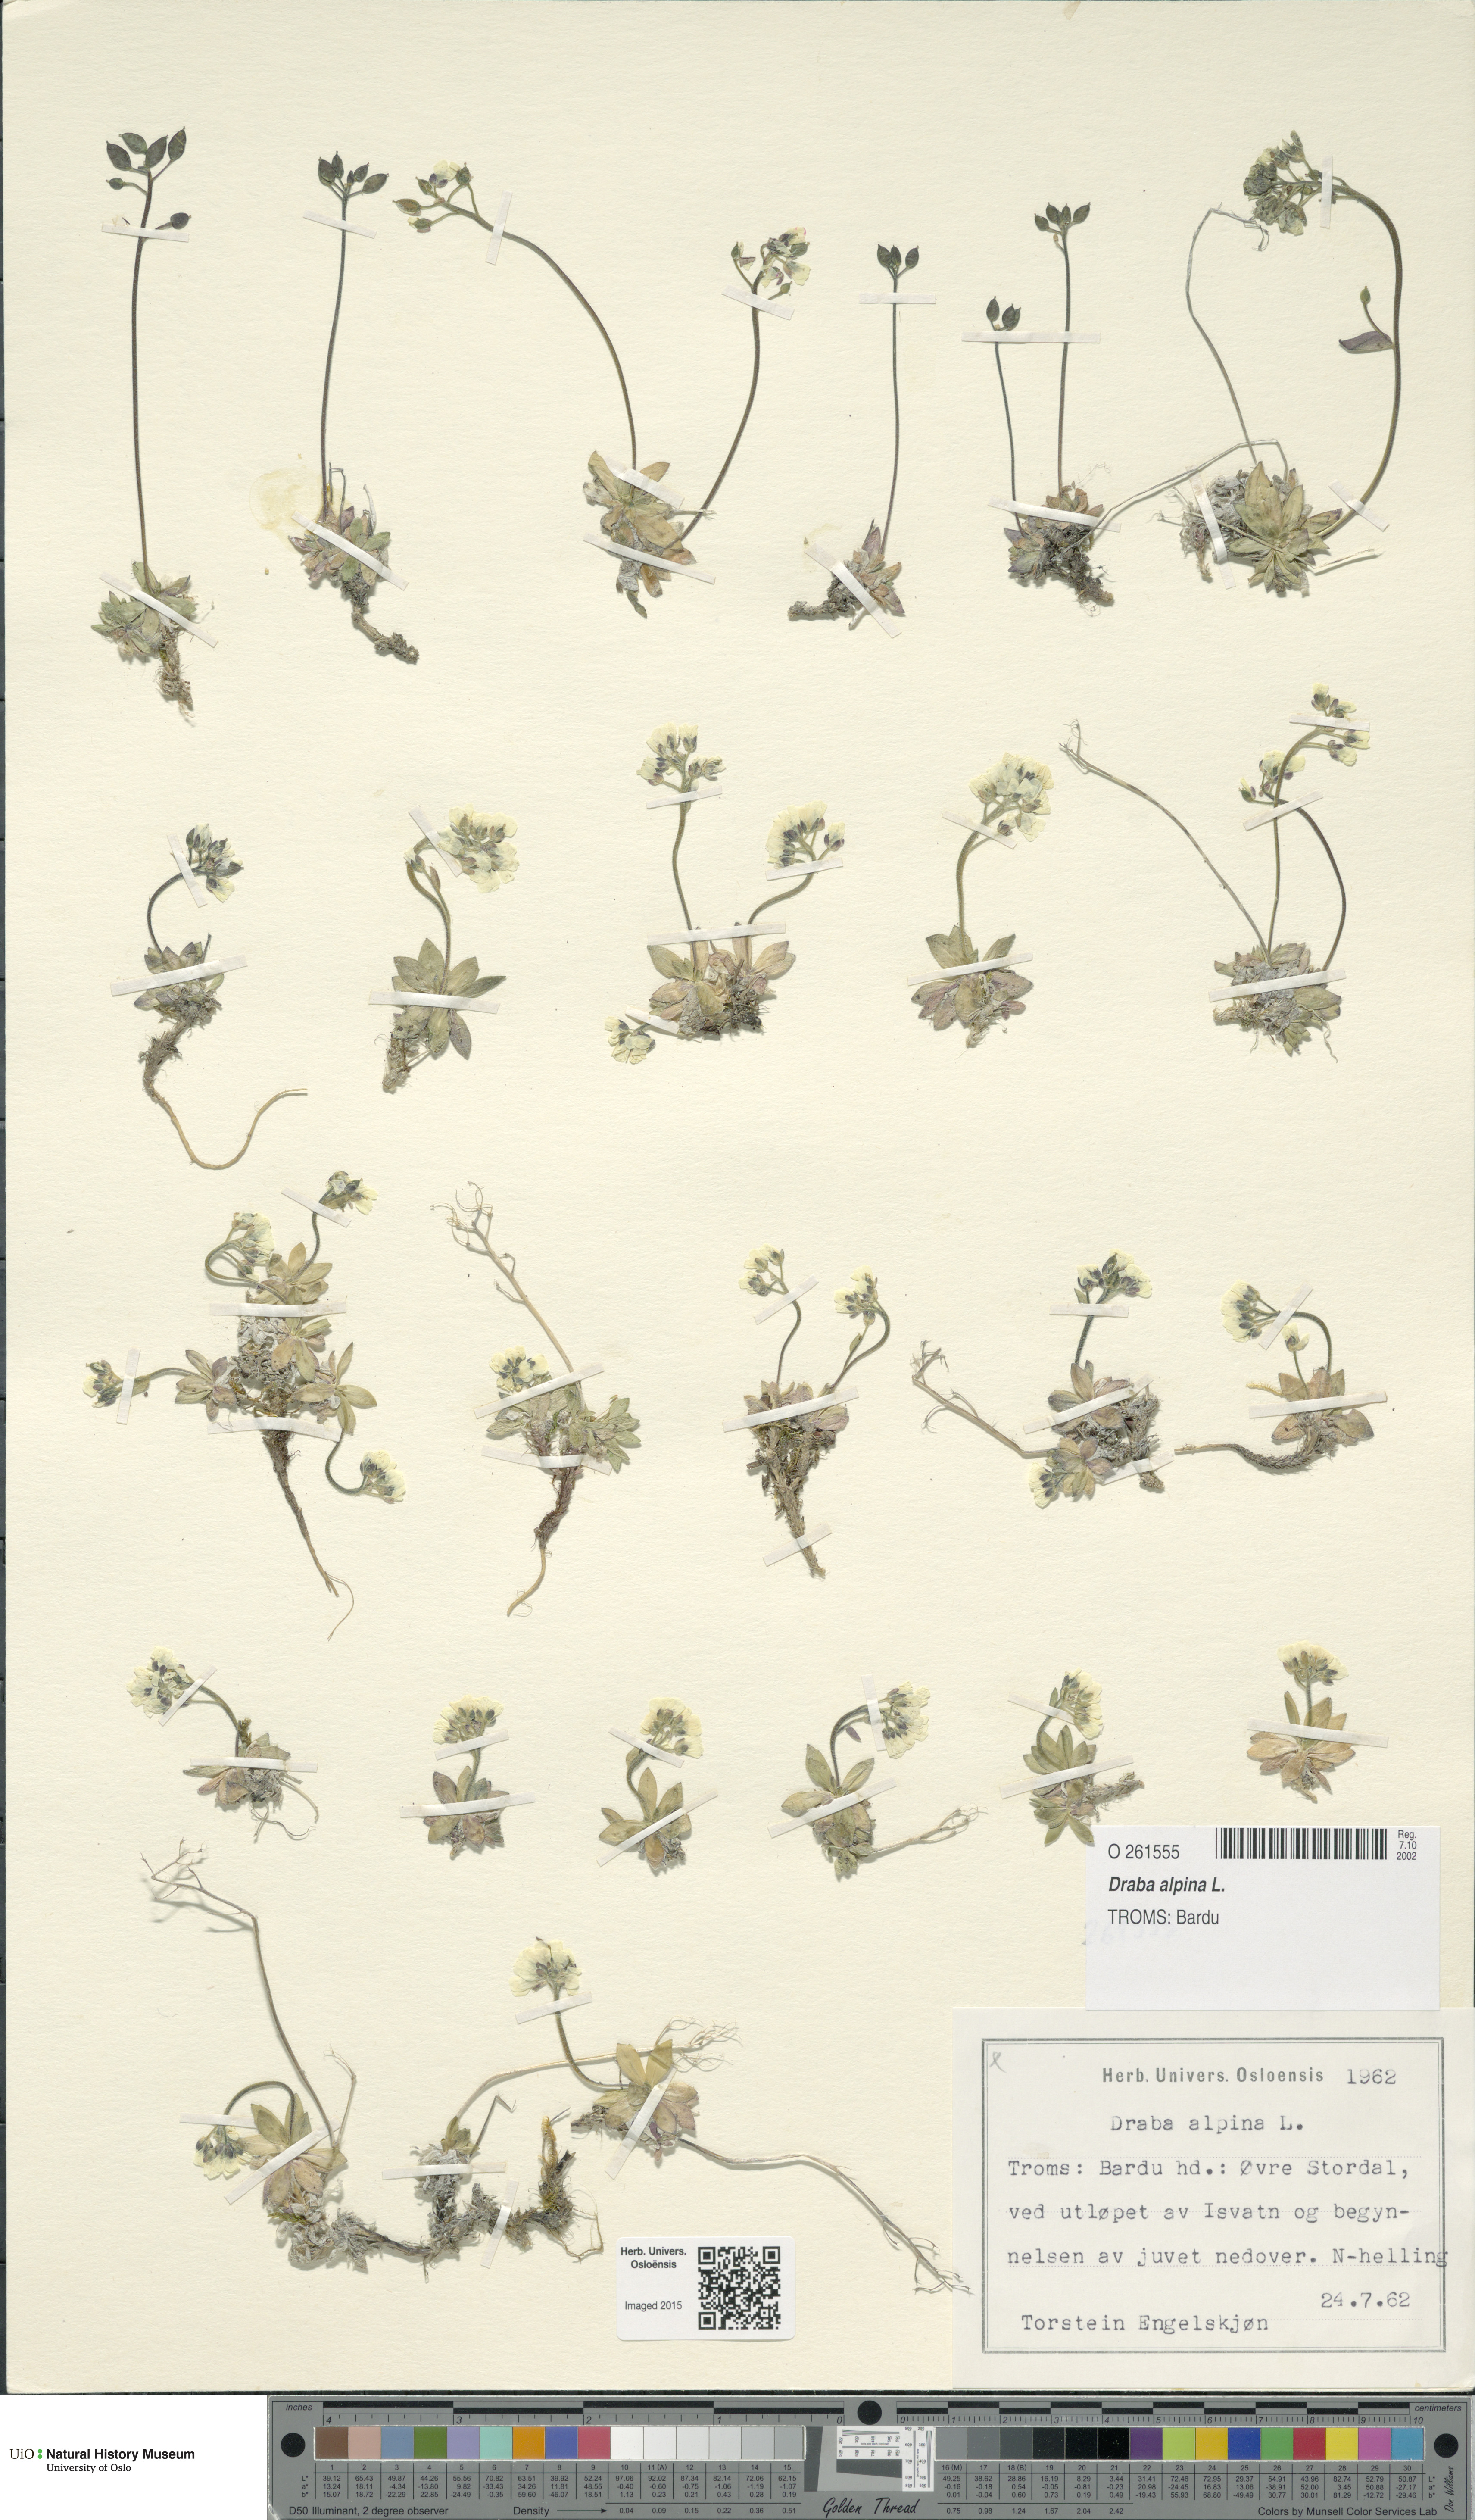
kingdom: Plantae
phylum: Tracheophyta
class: Magnoliopsida
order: Brassicales
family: Brassicaceae
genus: Draba
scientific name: Draba alpina
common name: Alpine draba
